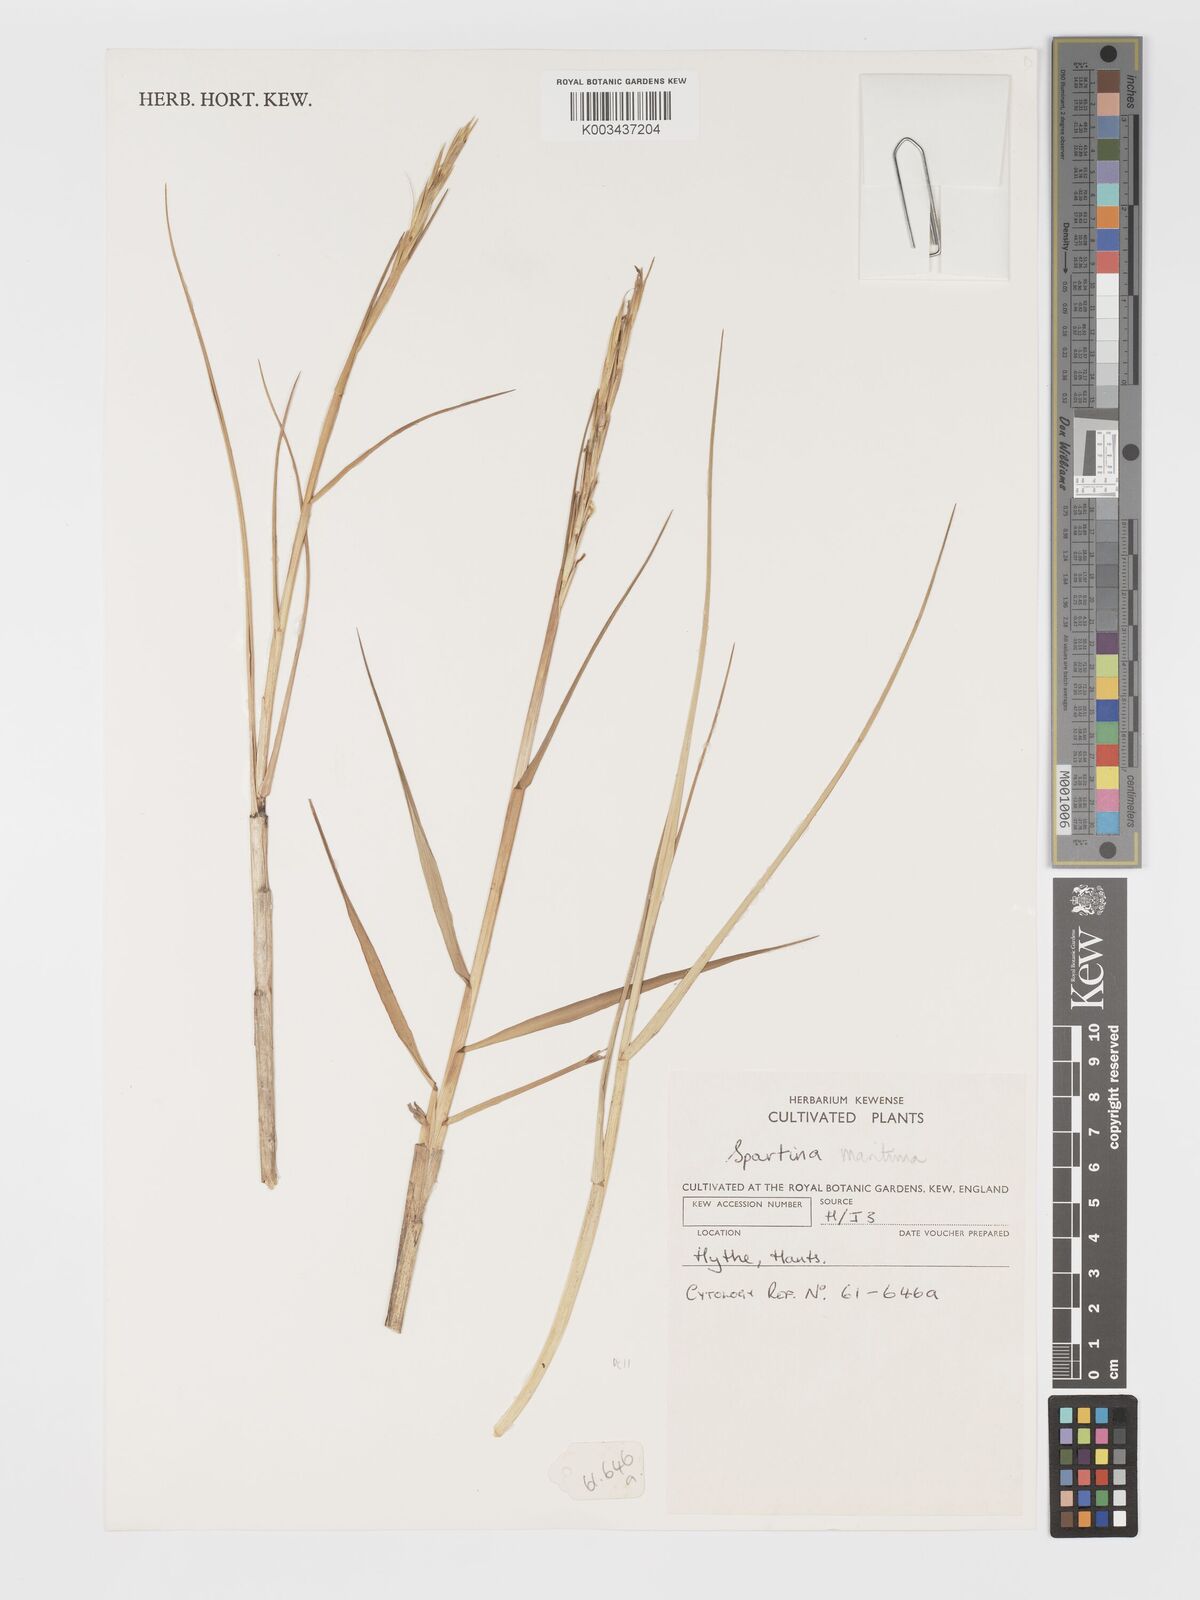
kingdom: Plantae
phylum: Tracheophyta
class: Liliopsida
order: Poales
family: Poaceae
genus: Sporobolus
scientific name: Sporobolus maritimus
